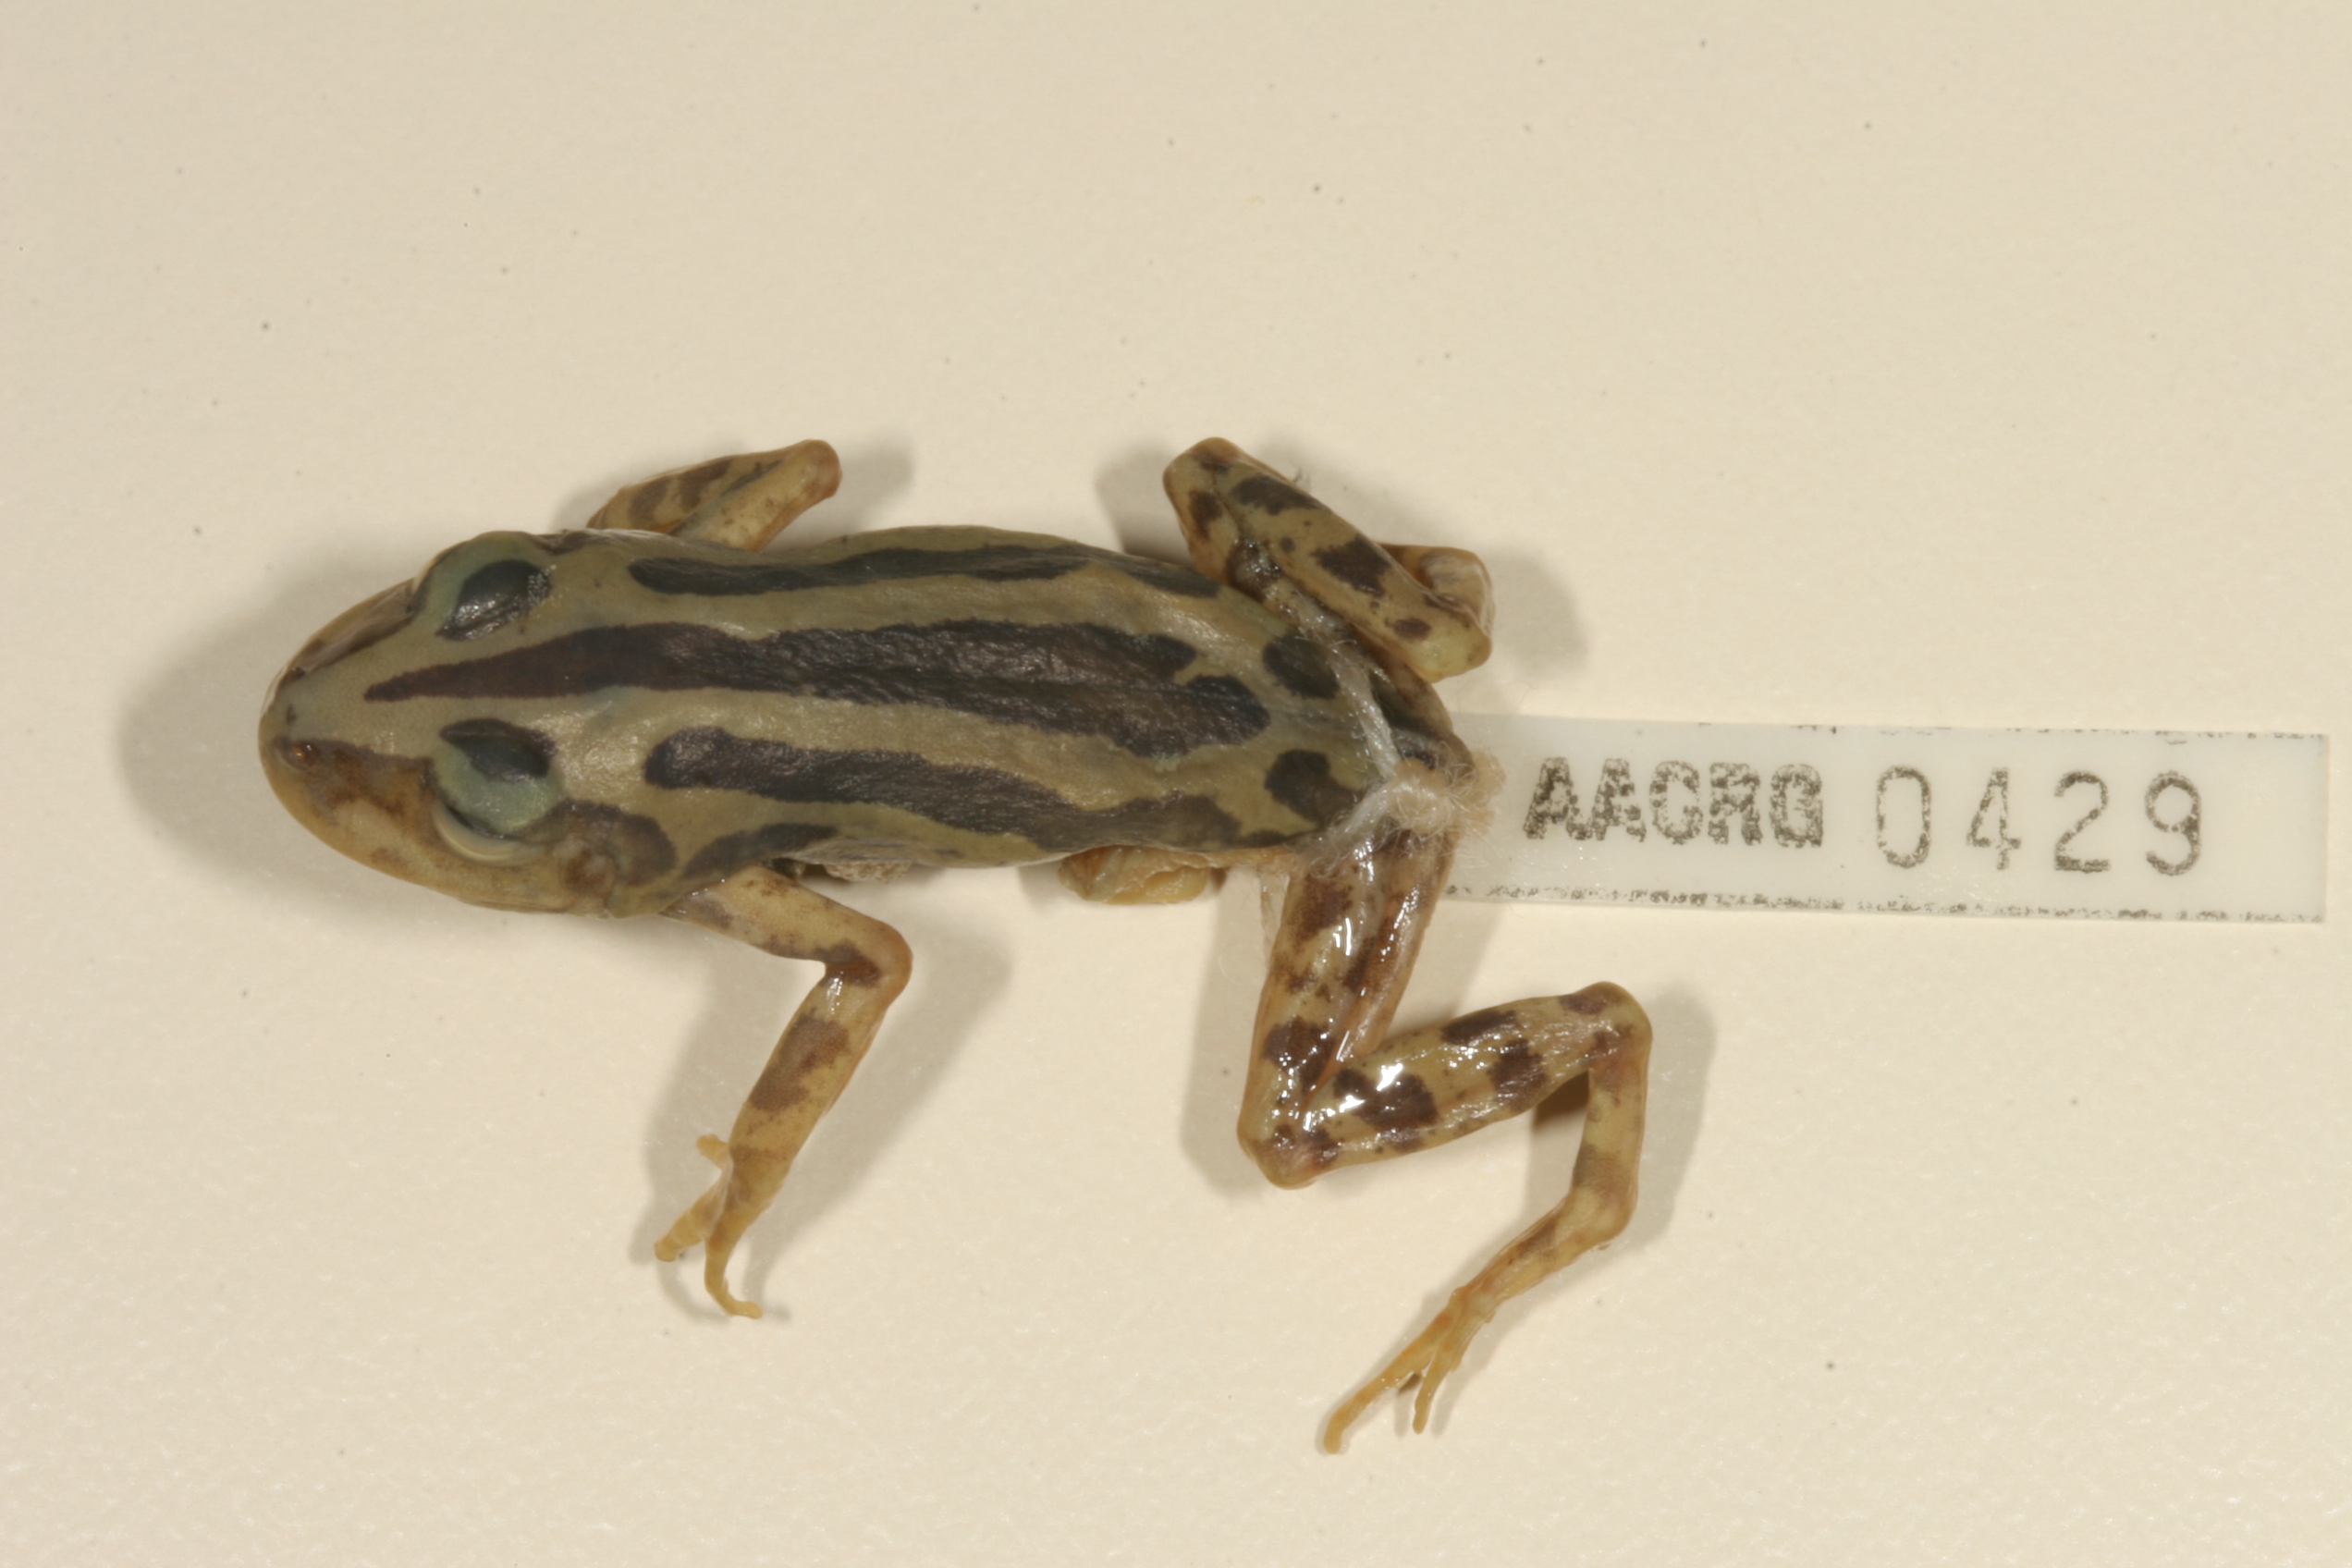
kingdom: Animalia
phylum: Chordata
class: Amphibia
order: Anura
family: Hyperoliidae
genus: Kassina
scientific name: Kassina senegalensis
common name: Senegal land frog
